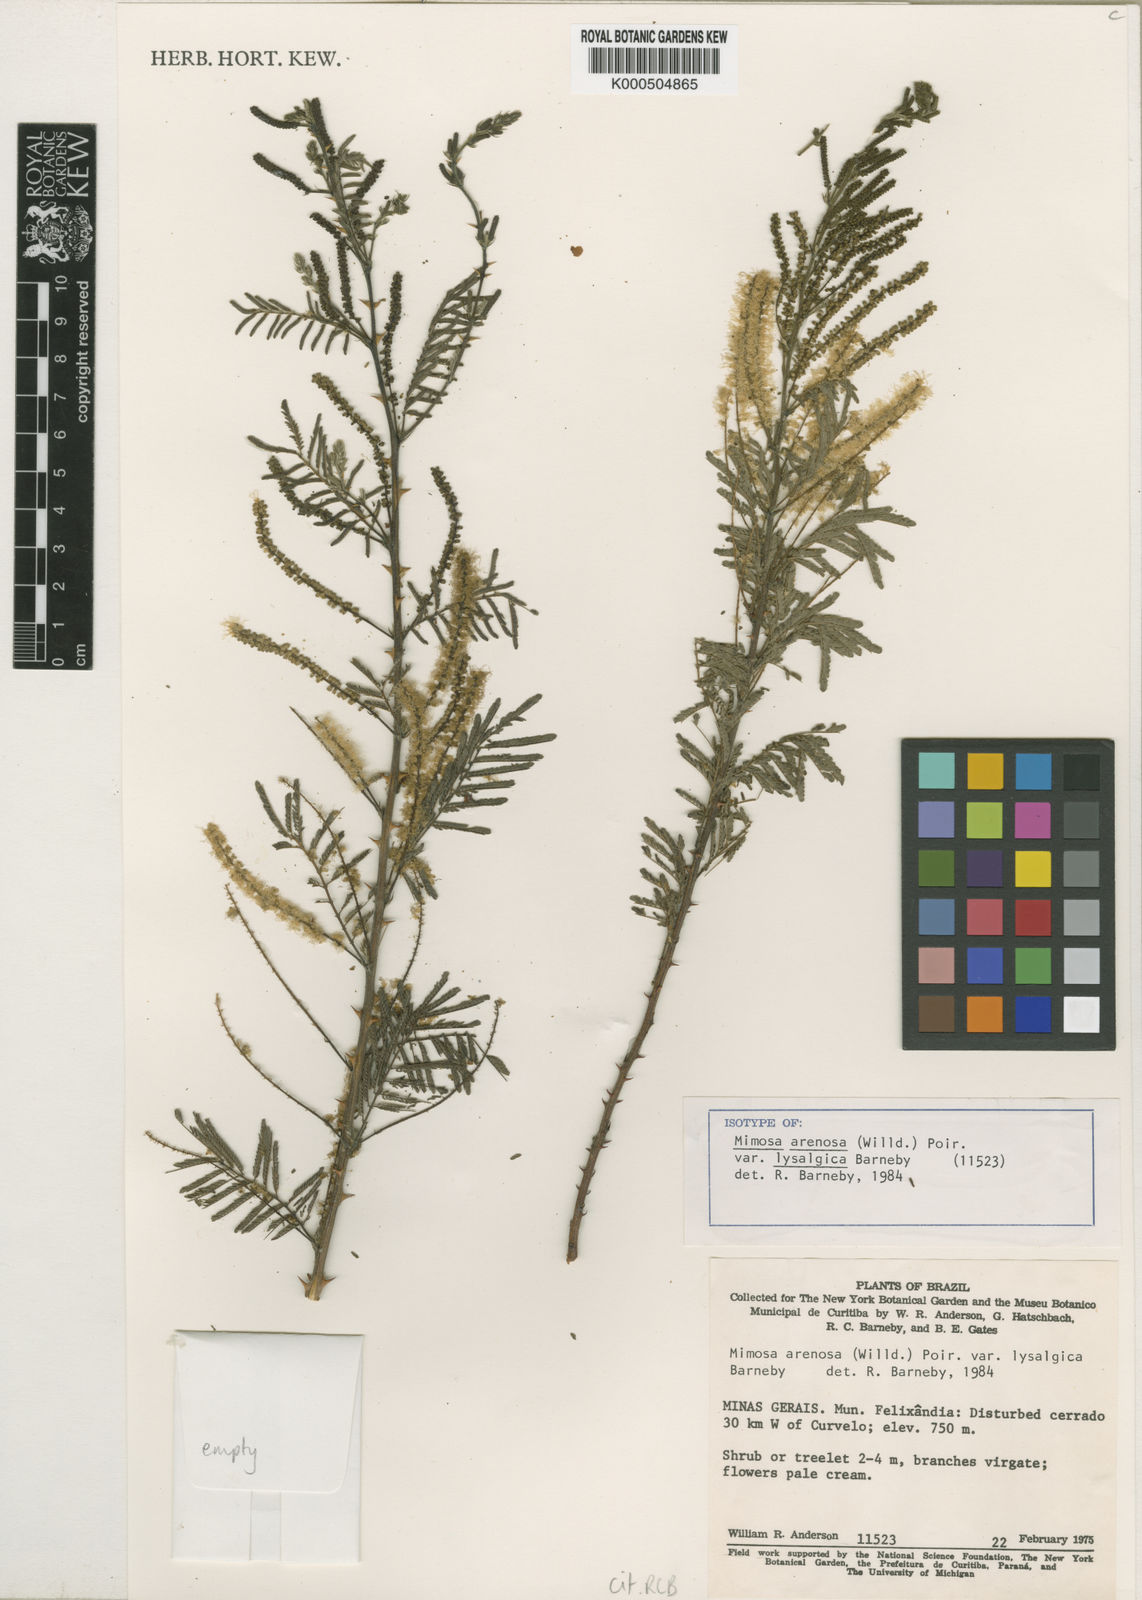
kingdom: Plantae
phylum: Tracheophyta
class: Magnoliopsida
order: Fabales
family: Fabaceae
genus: Mimosa
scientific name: Mimosa arenosa
